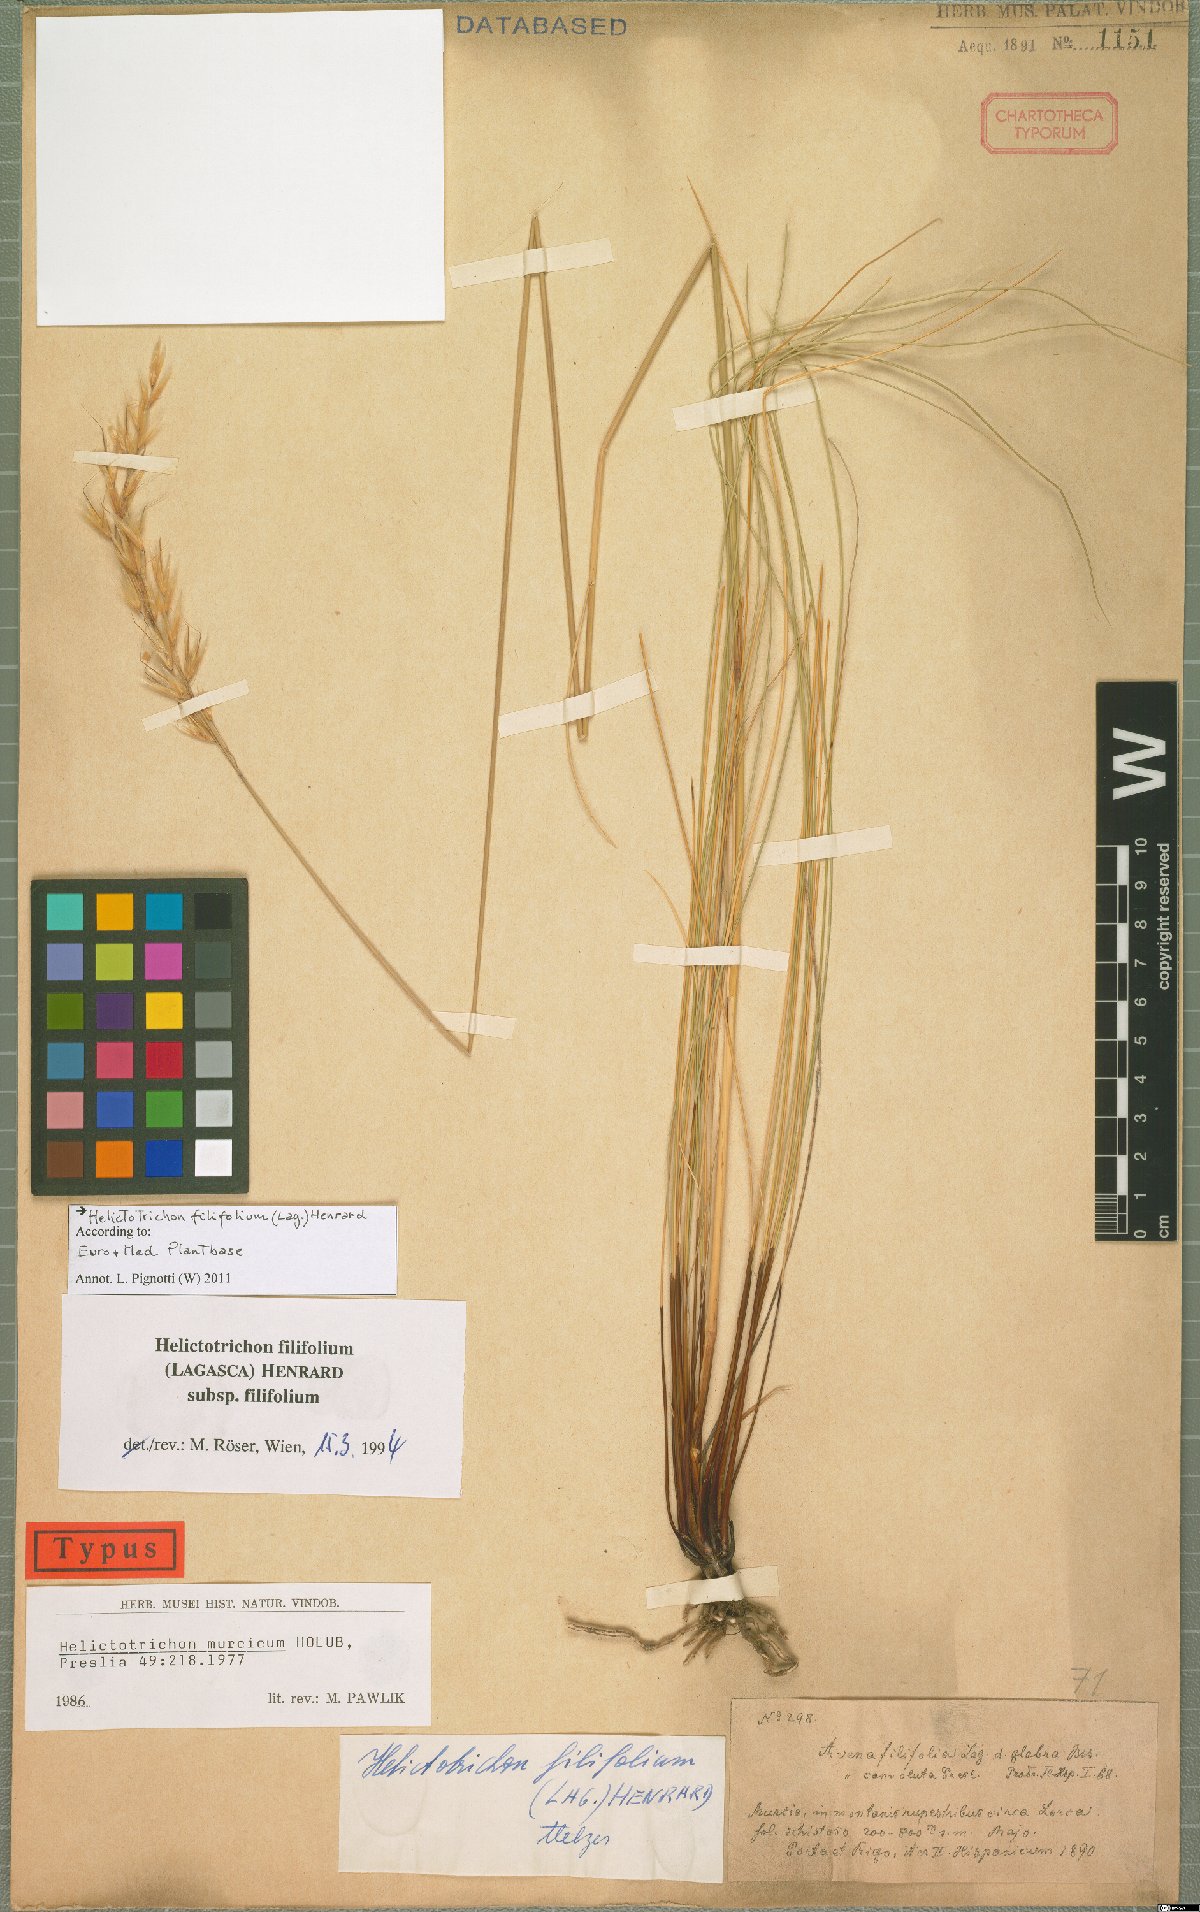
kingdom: Plantae
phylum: Tracheophyta
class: Liliopsida
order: Poales
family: Poaceae
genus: Helictotrichon
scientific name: Helictotrichon filifolium
